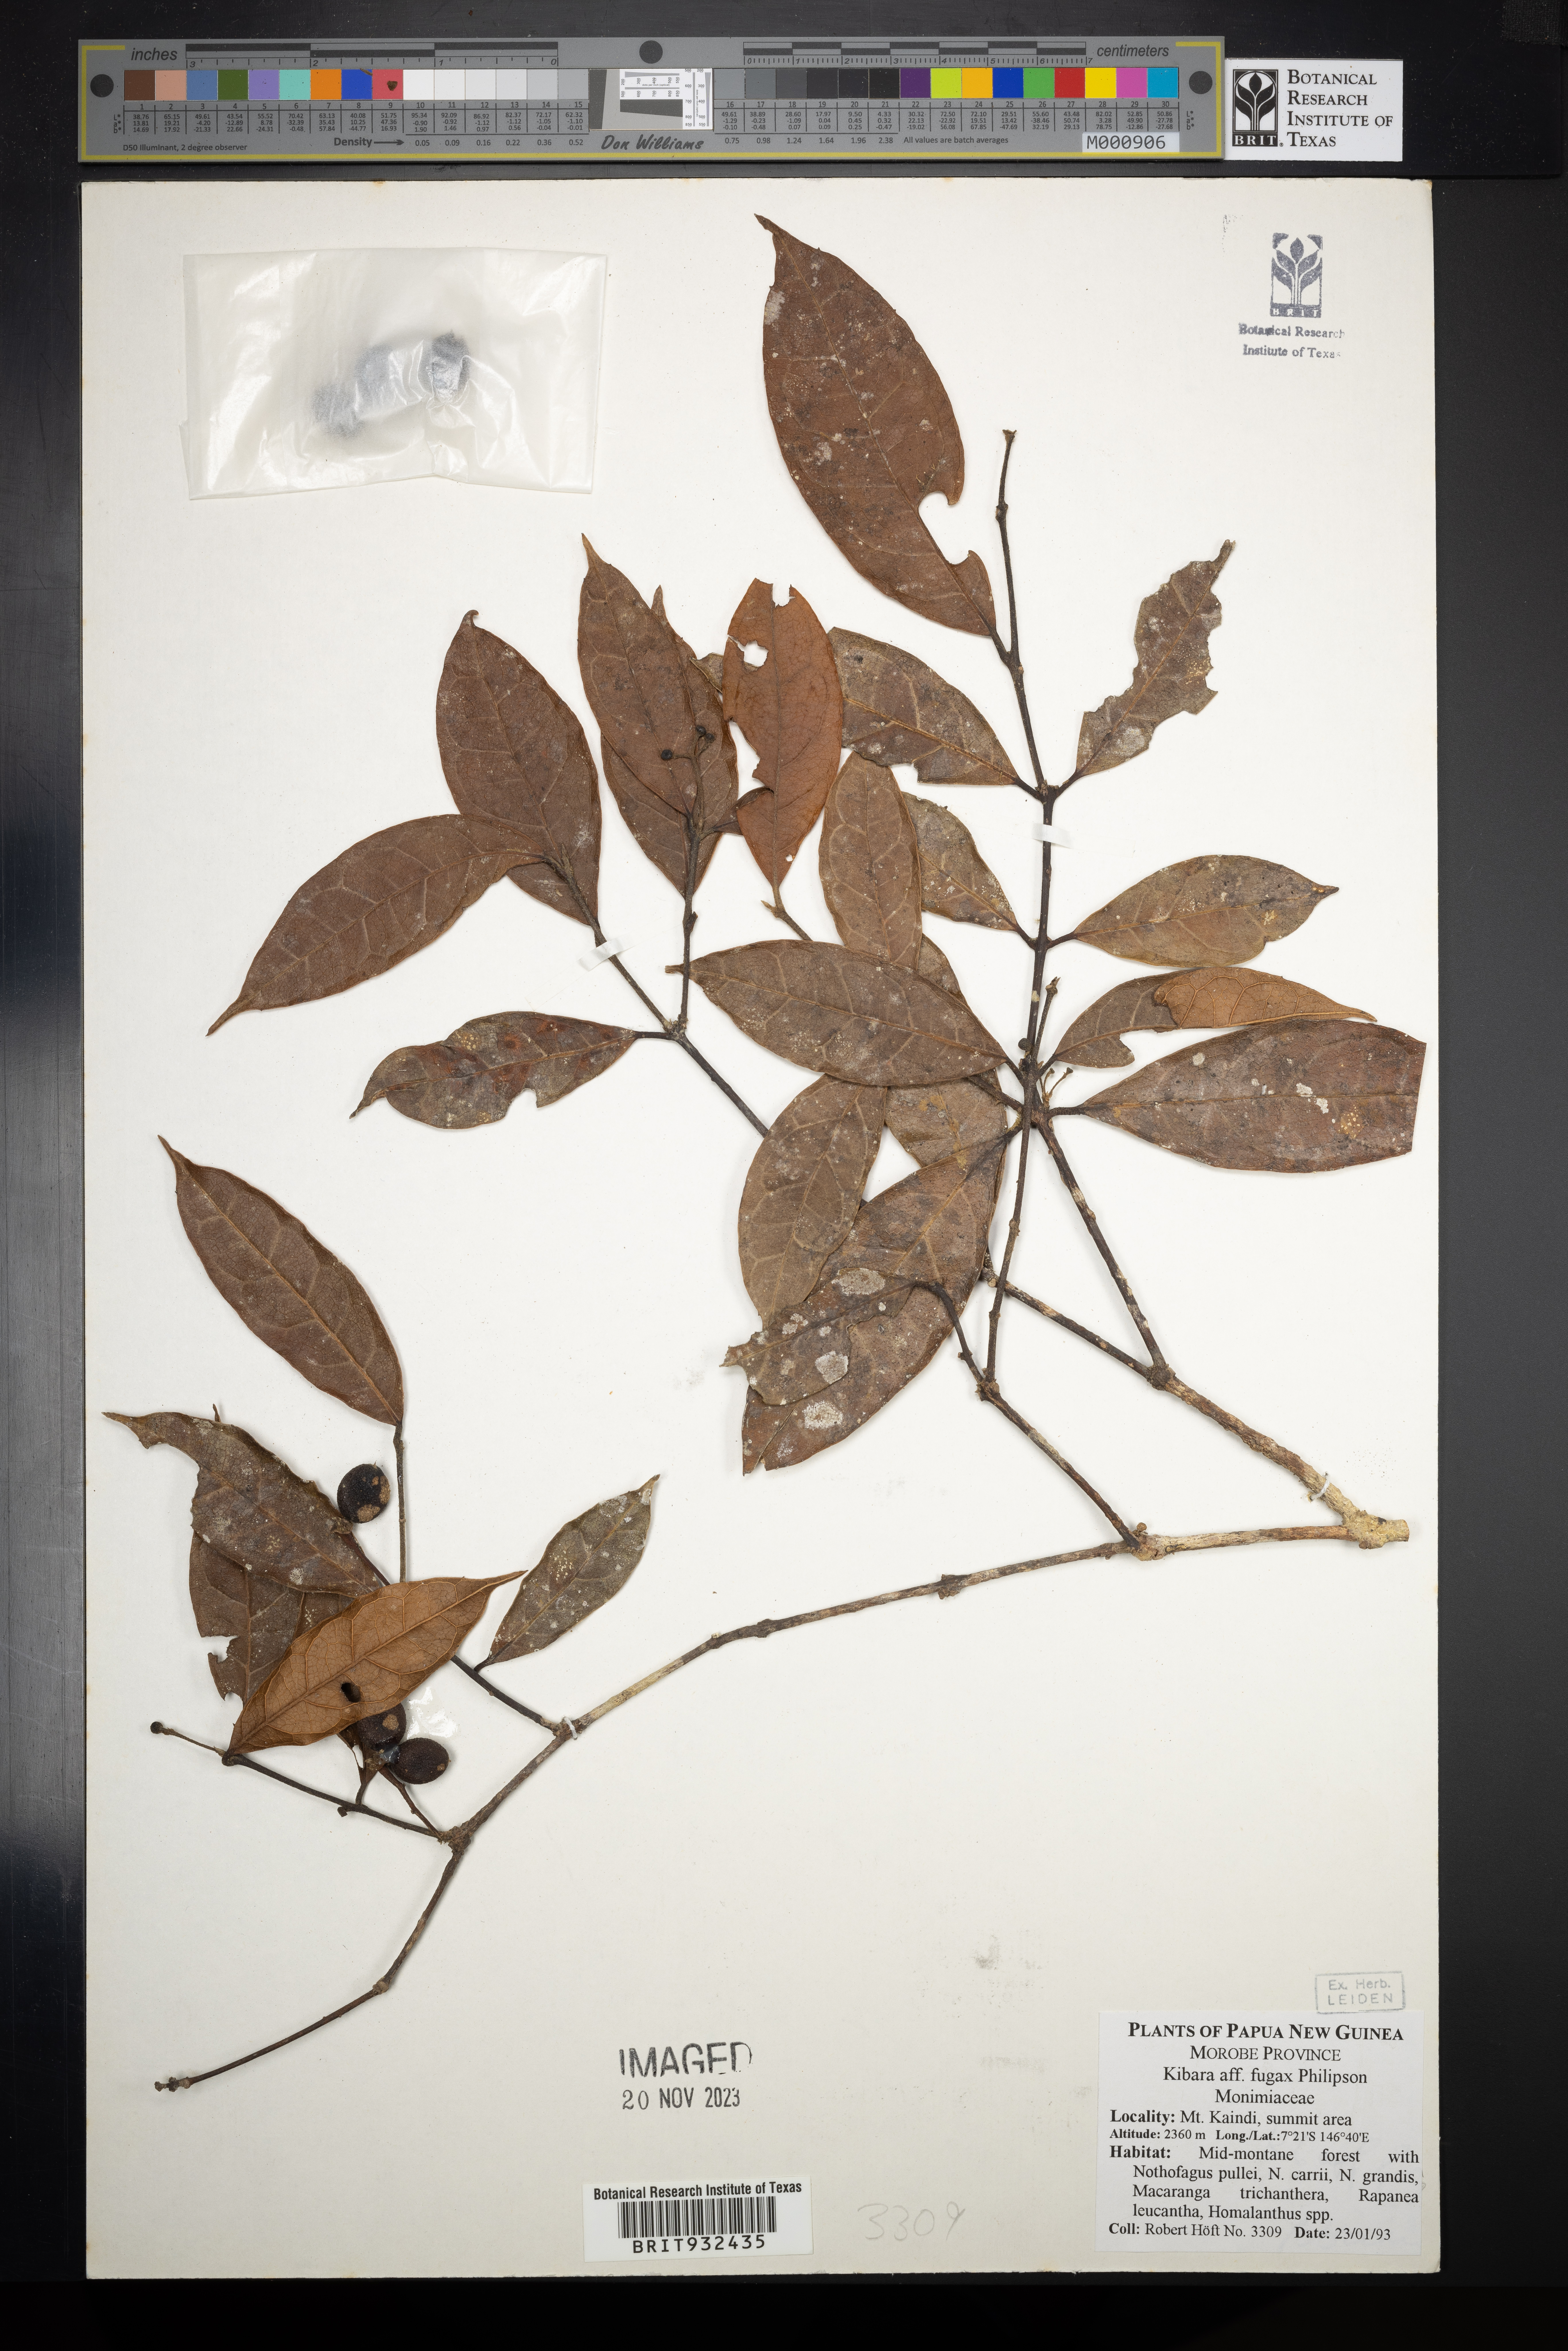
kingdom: Plantae
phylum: Tracheophyta
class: Magnoliopsida
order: Laurales
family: Monimiaceae
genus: Kibara
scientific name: Kibara
